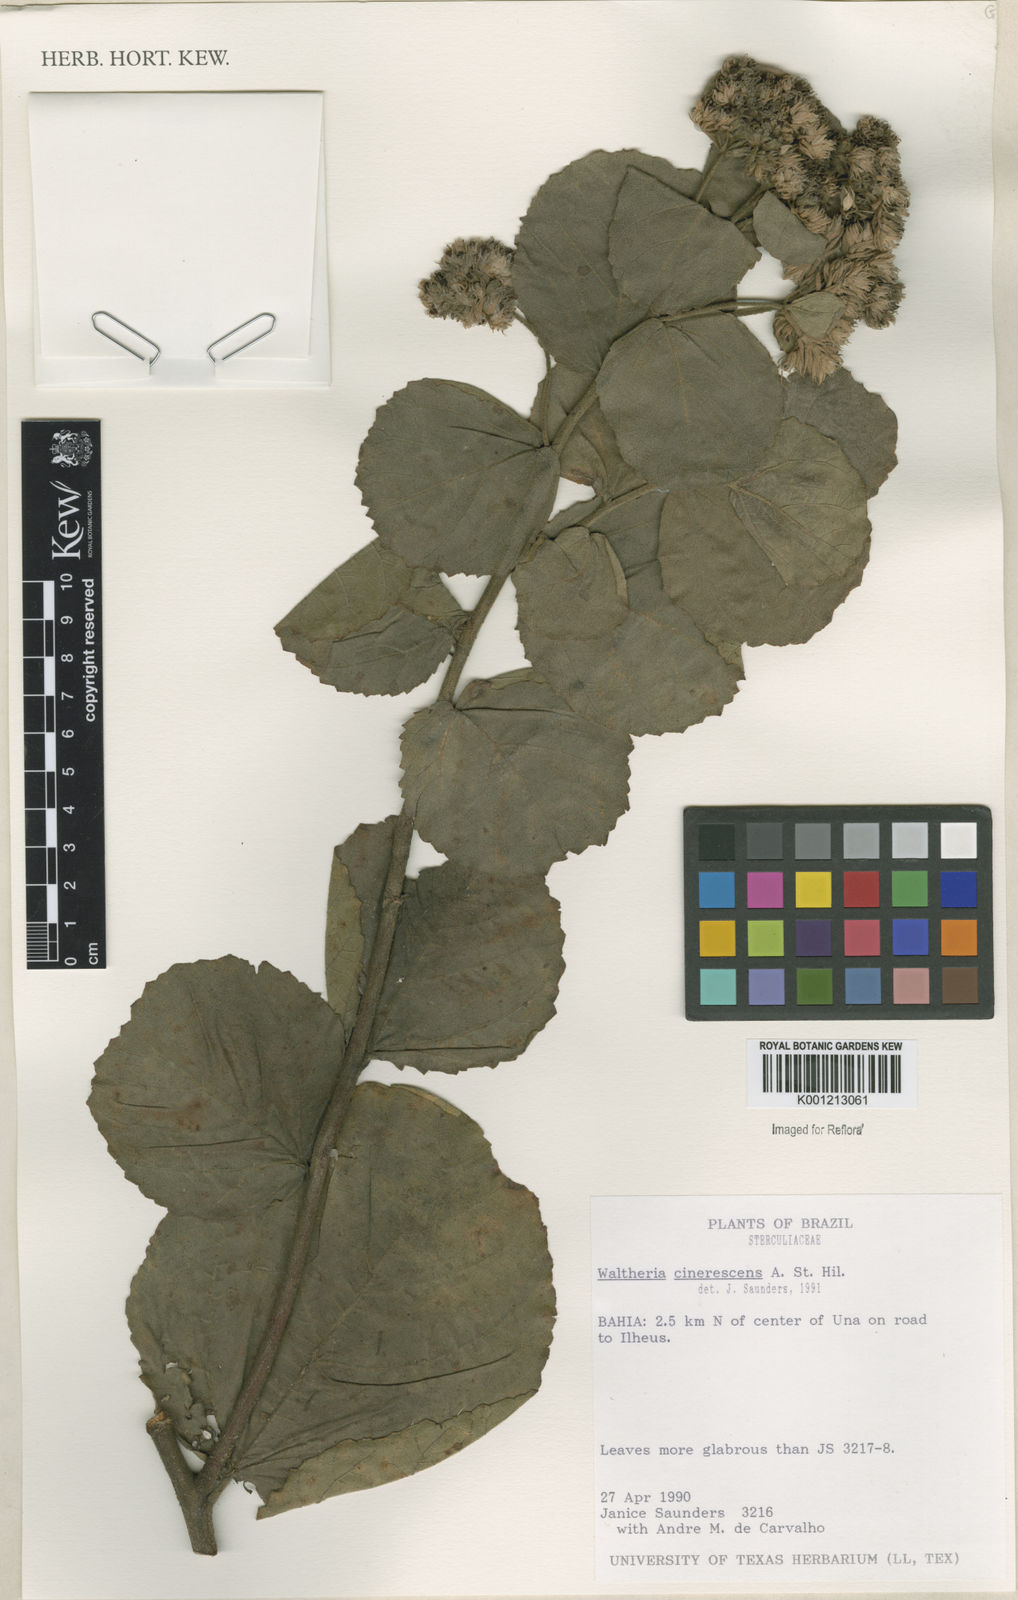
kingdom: Plantae
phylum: Tracheophyta
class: Magnoliopsida
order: Malvales
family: Malvaceae
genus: Waltheria
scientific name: Waltheria cinerescens
